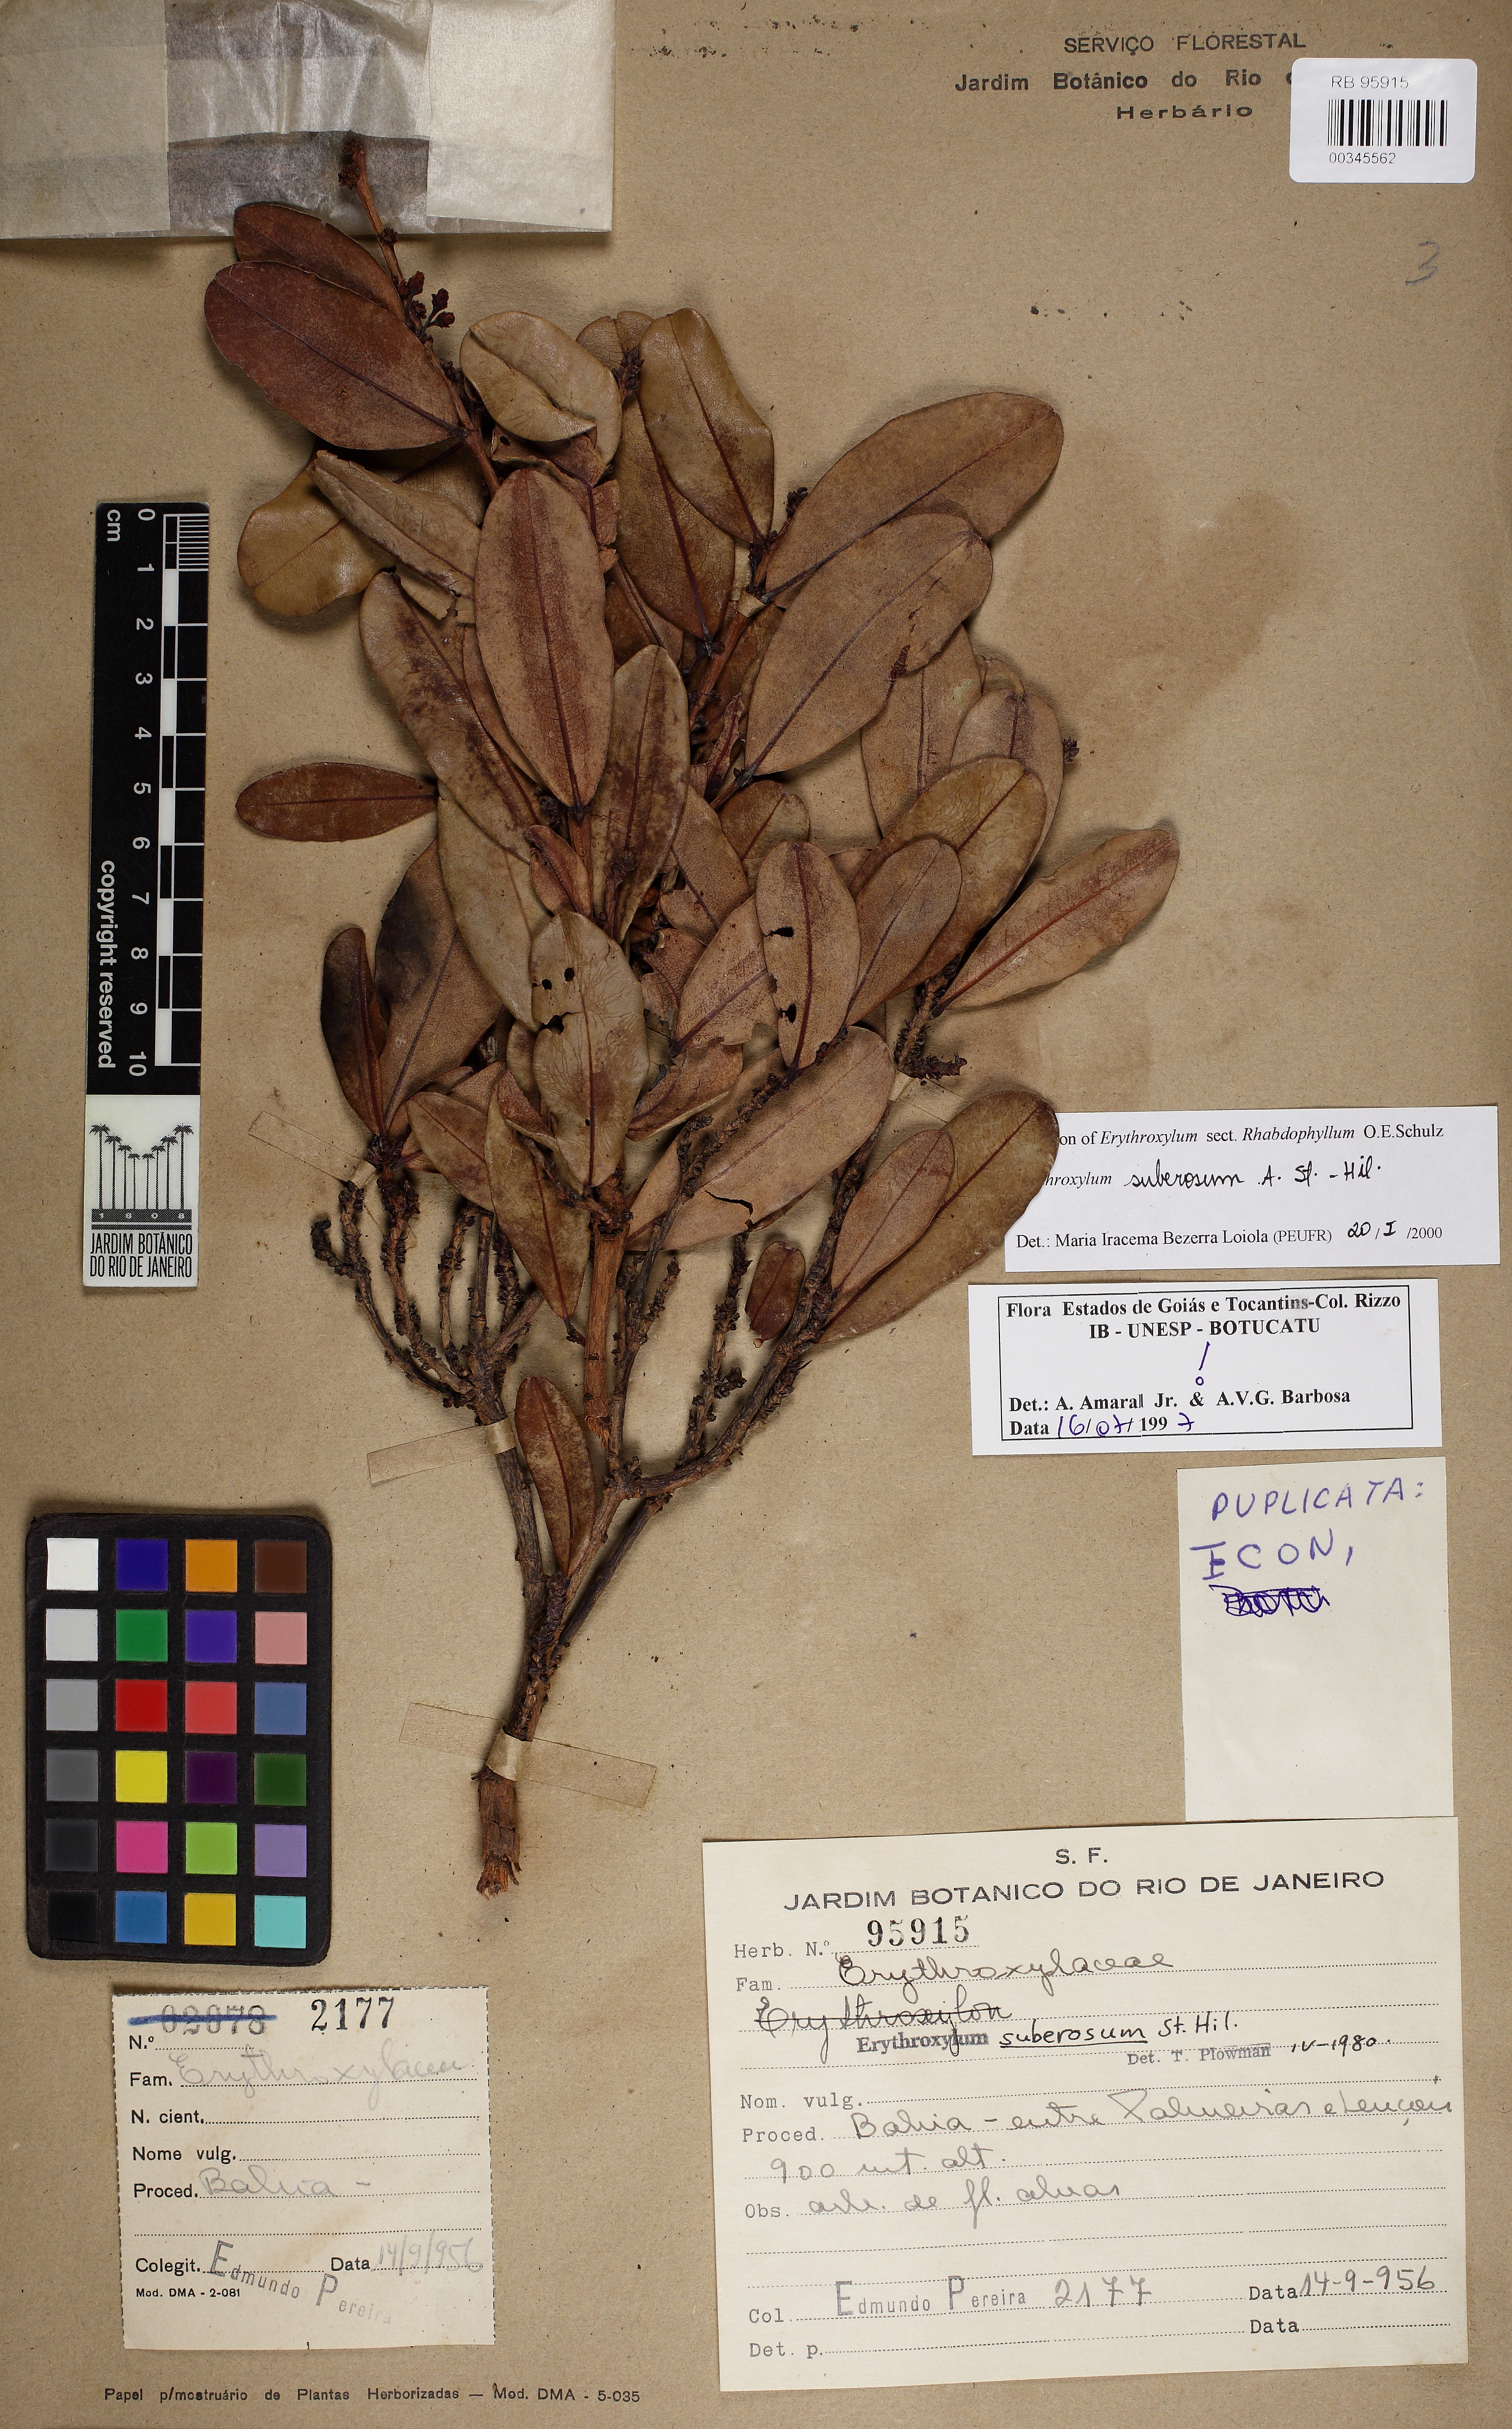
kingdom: Plantae
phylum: Tracheophyta
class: Magnoliopsida
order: Malpighiales
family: Erythroxylaceae
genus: Erythroxylum
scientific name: Erythroxylum suberosum
